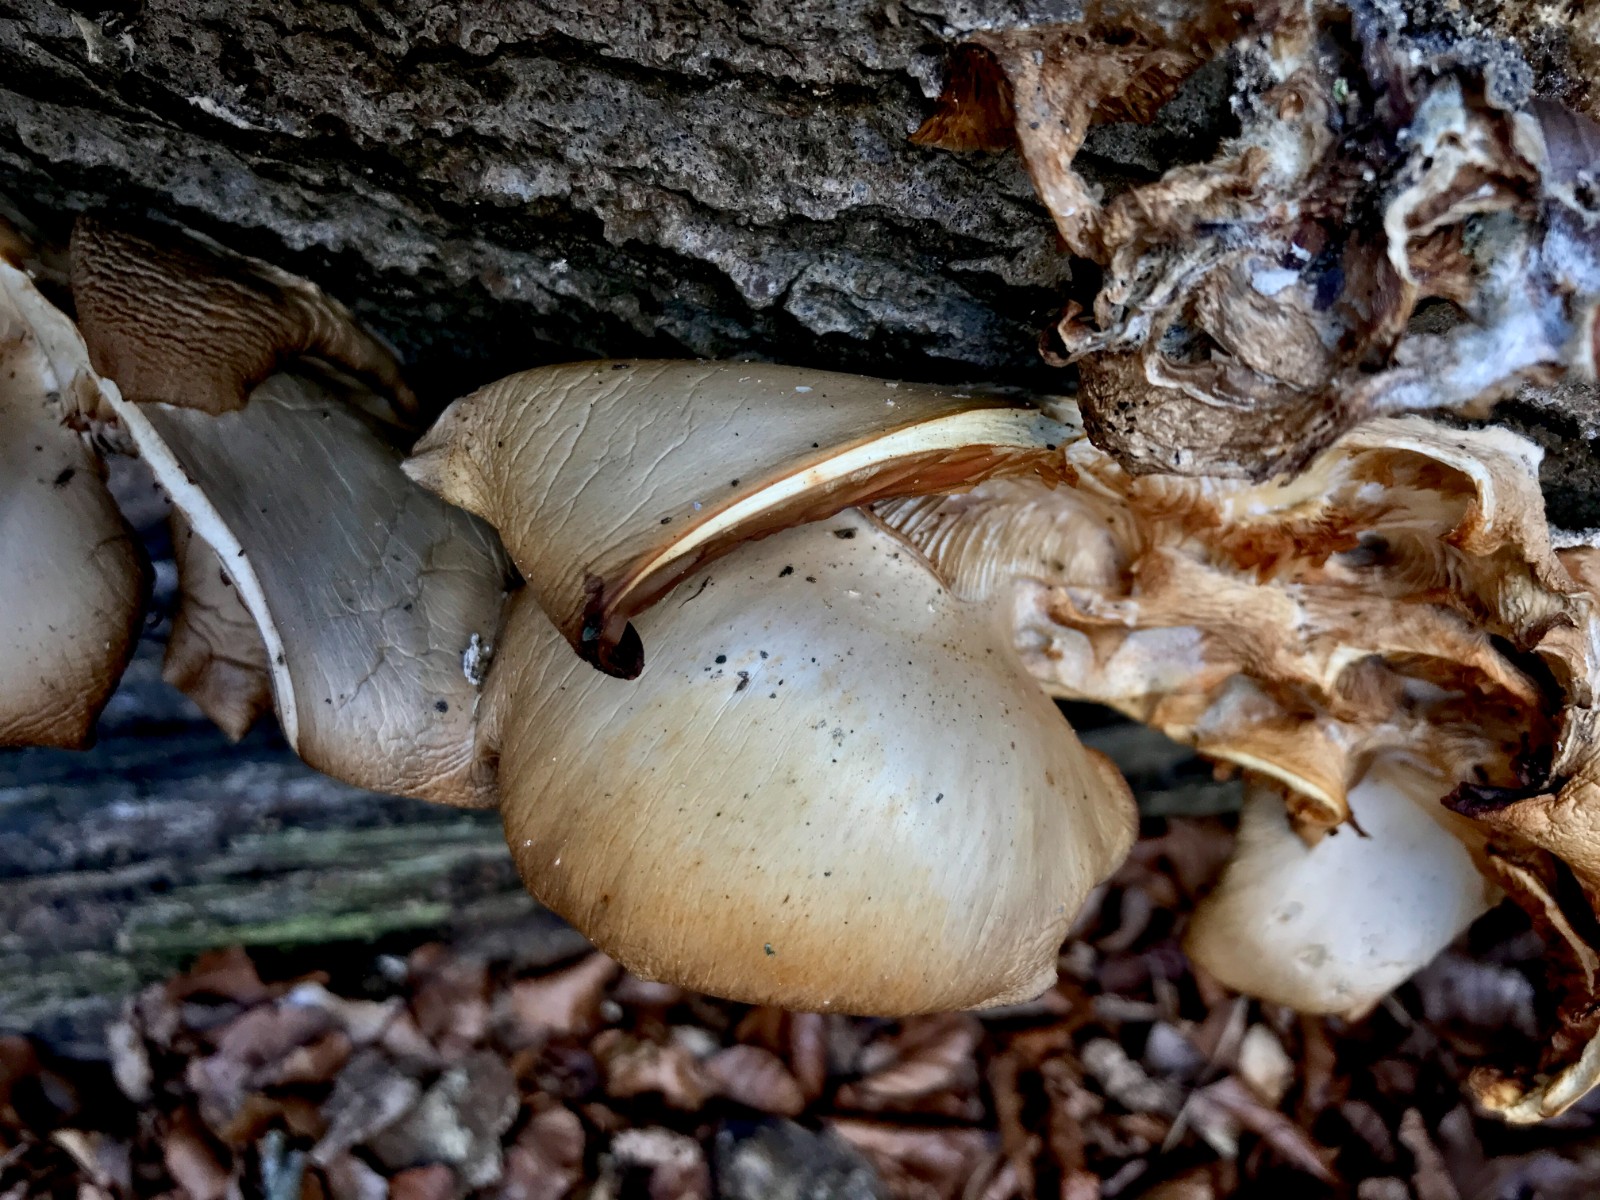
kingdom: Fungi
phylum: Basidiomycota
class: Agaricomycetes
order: Agaricales
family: Pleurotaceae
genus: Pleurotus
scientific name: Pleurotus ostreatus
